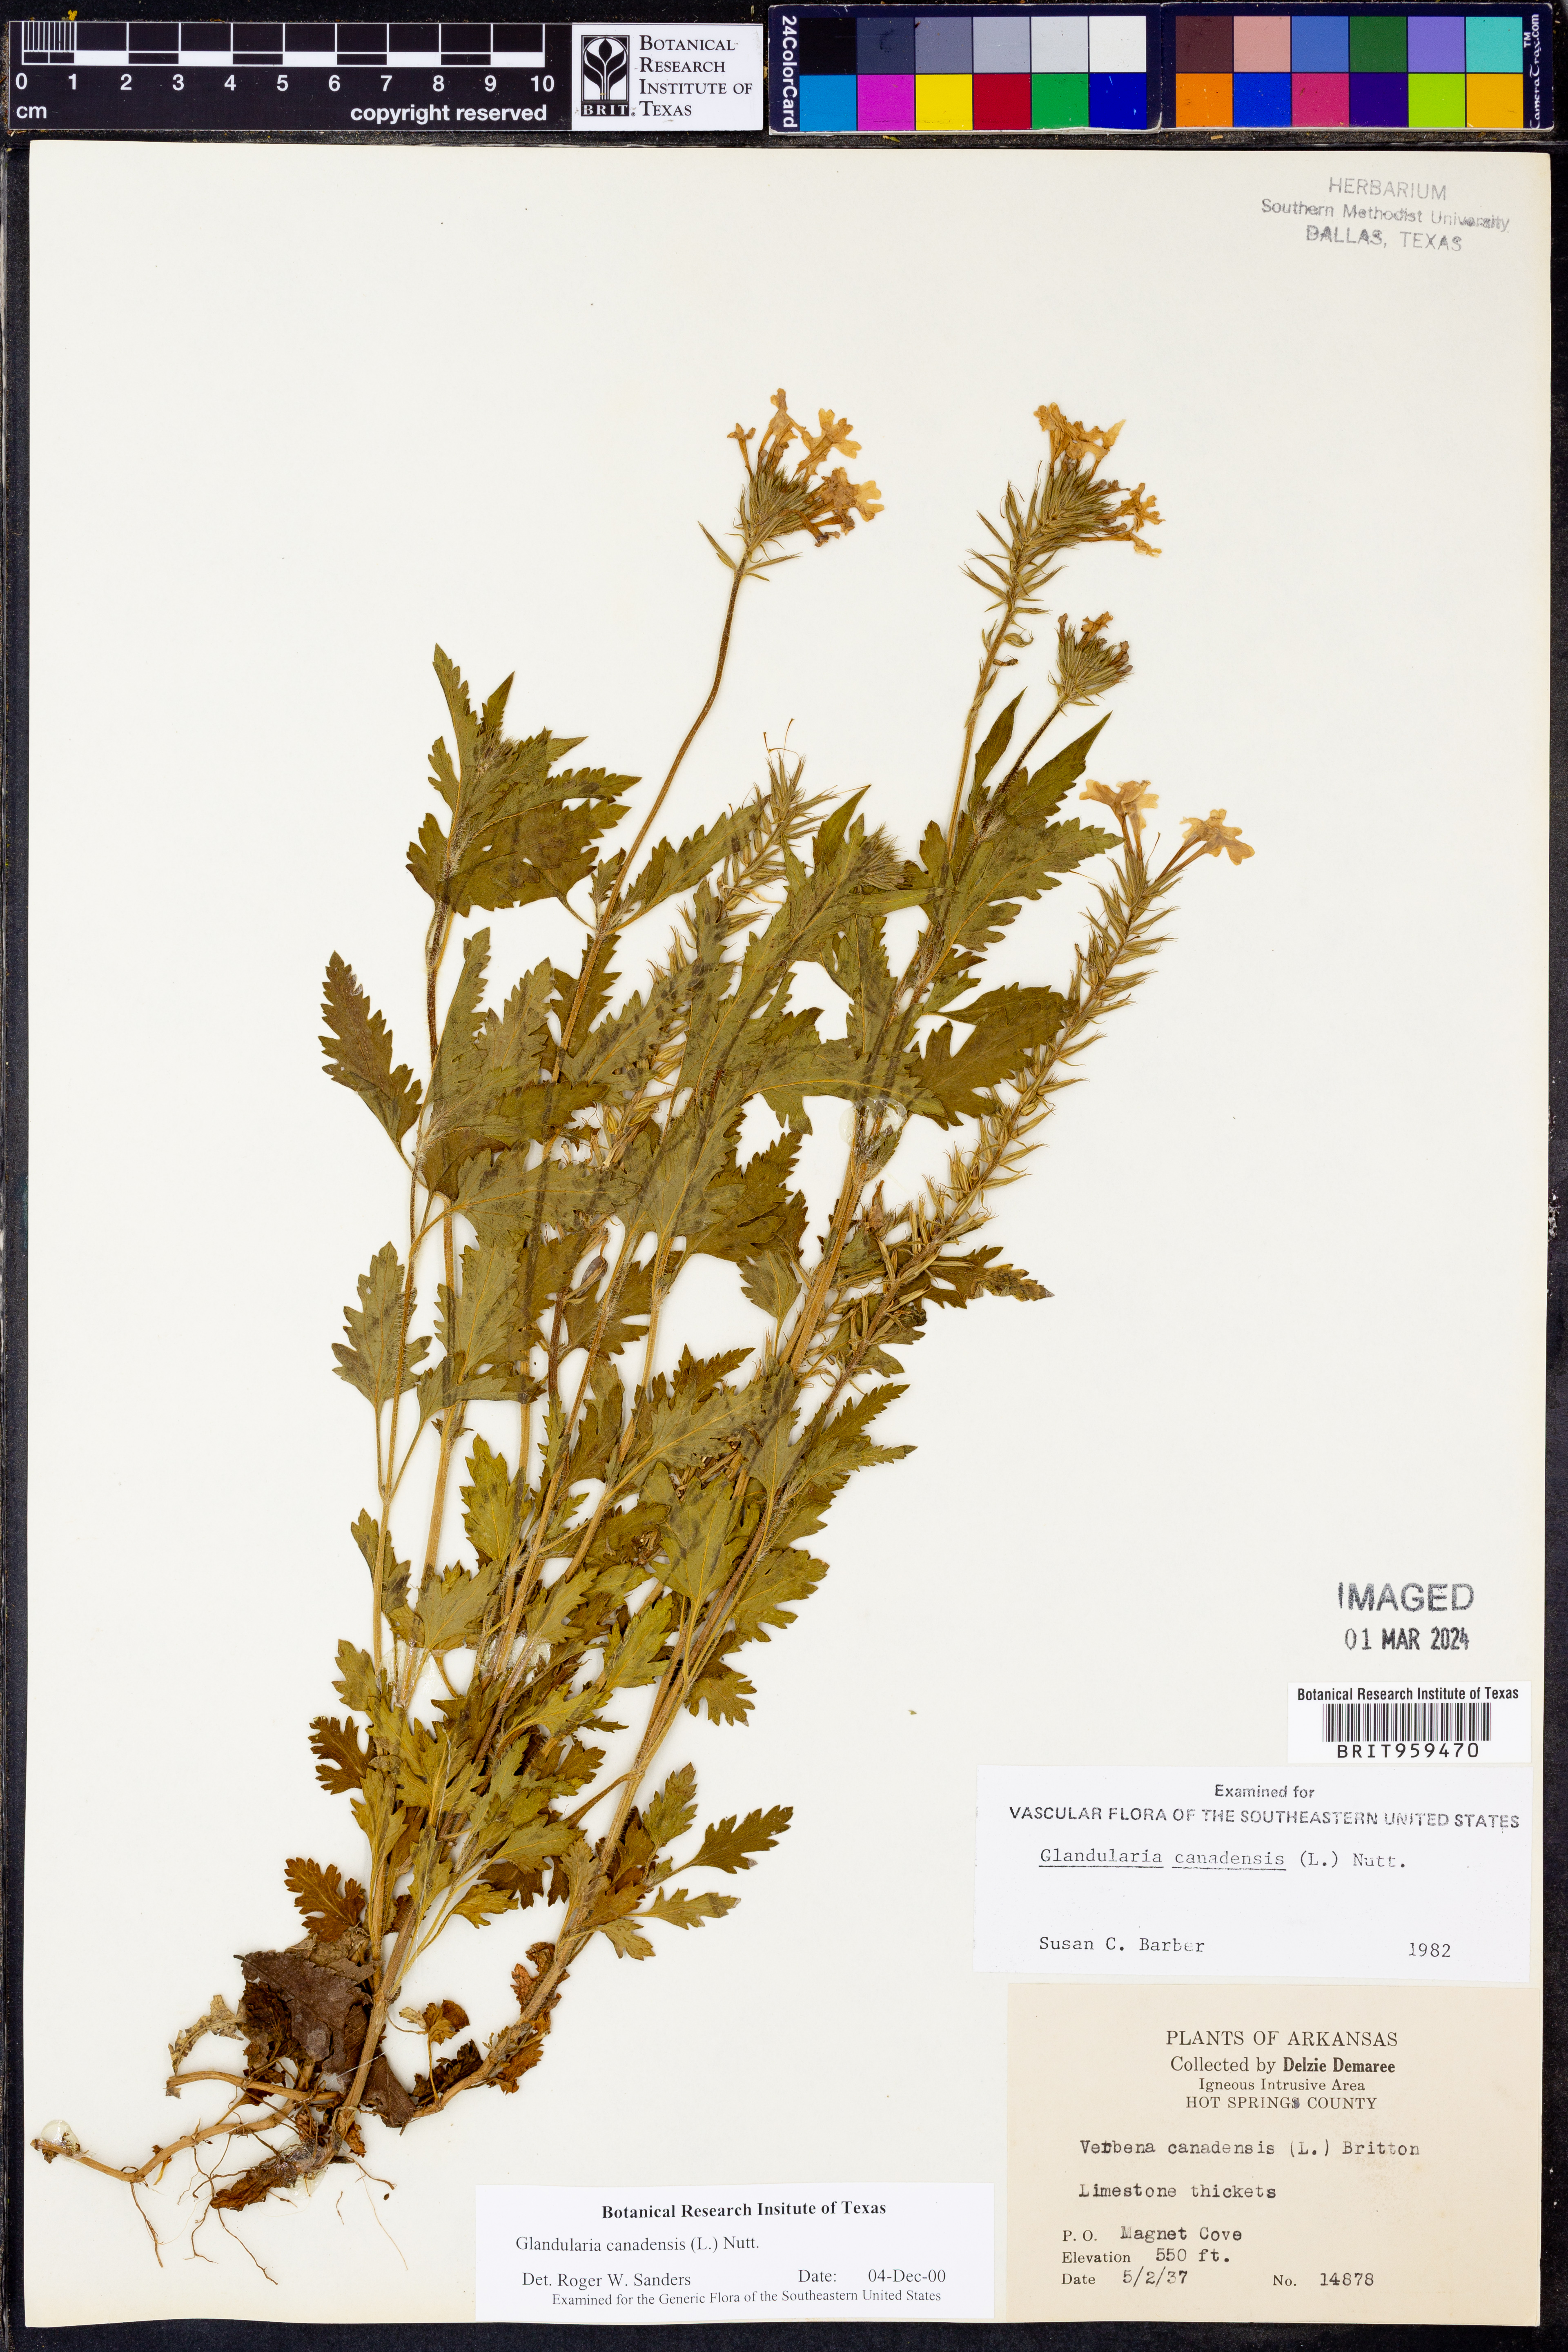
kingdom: Plantae
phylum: Tracheophyta
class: Magnoliopsida
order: Lamiales
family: Verbenaceae
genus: Verbena
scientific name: Verbena canadensis
